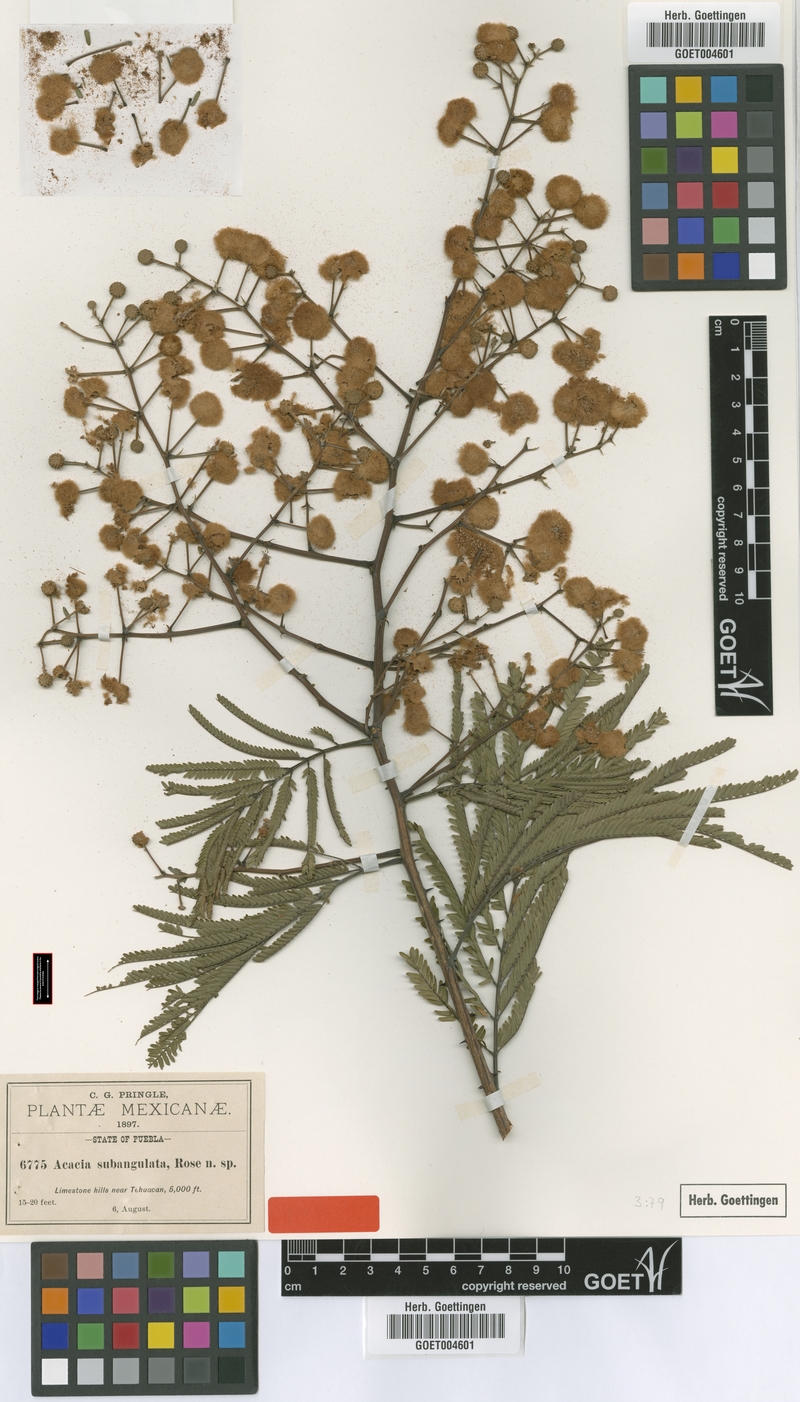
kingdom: Plantae
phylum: Tracheophyta
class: Magnoliopsida
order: Fabales
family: Fabaceae
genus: Senegalia
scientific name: Senegalia subangulata
